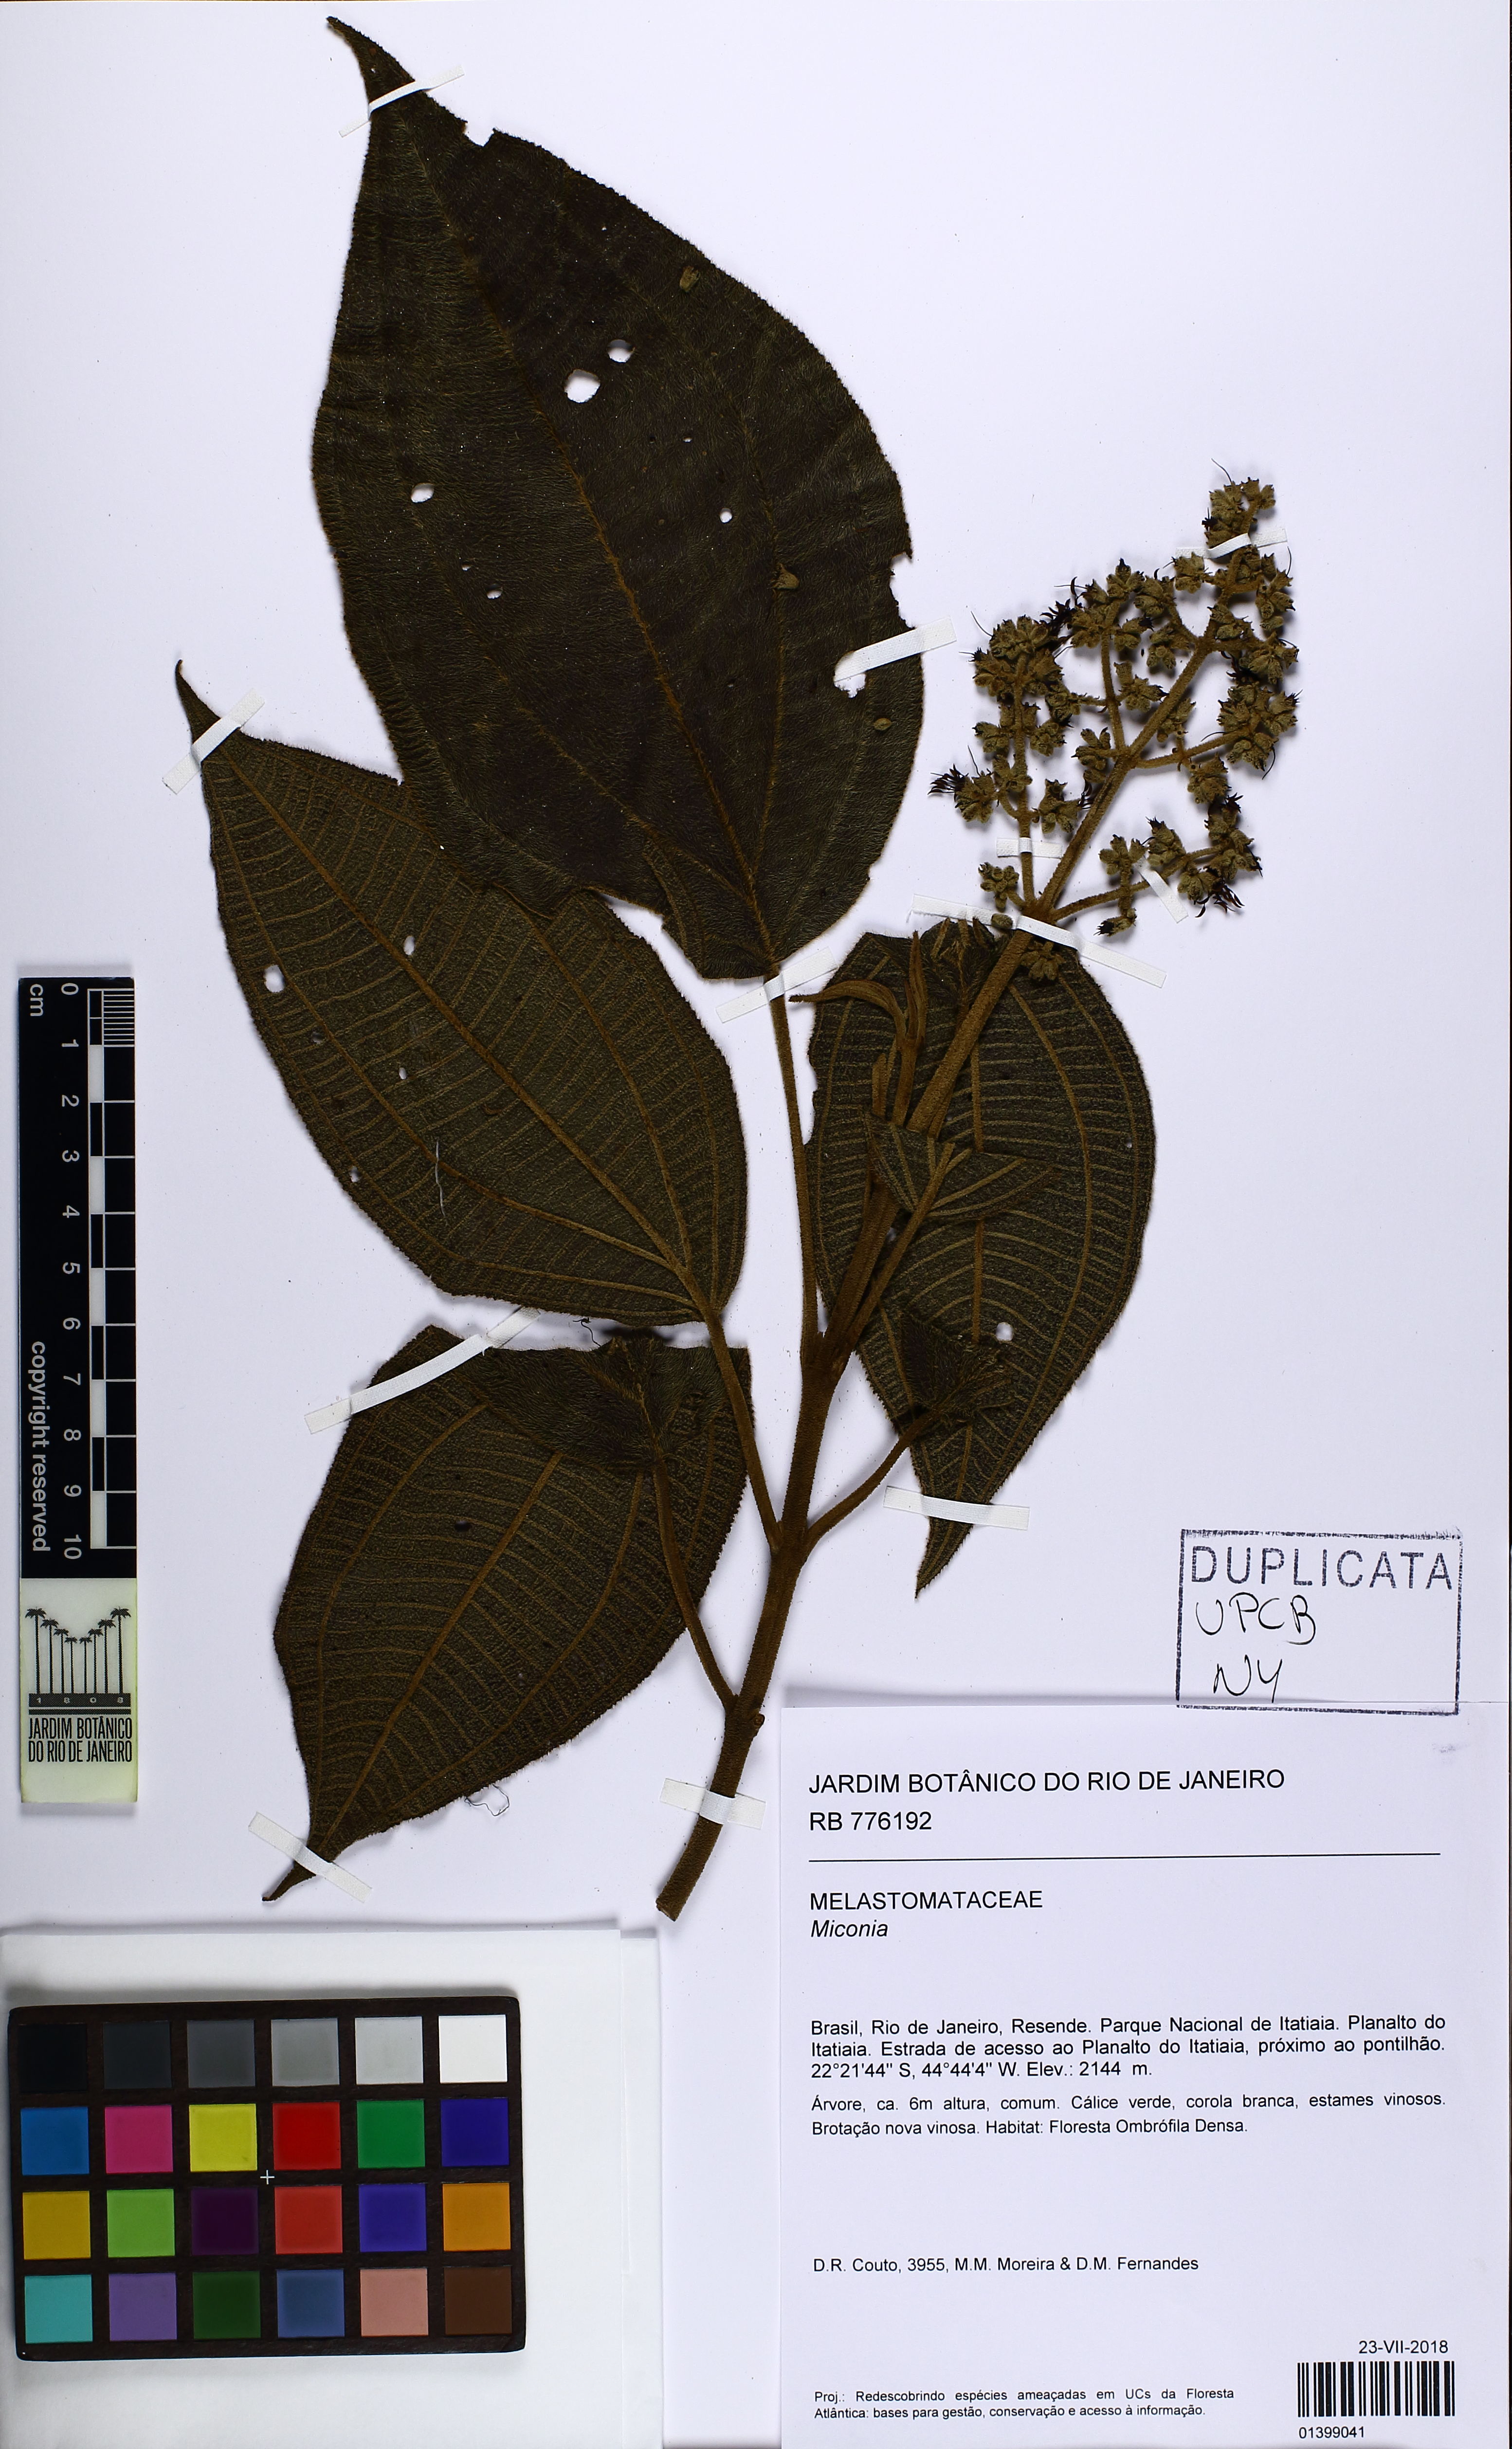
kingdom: Plantae
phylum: Tracheophyta
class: Magnoliopsida
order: Myrtales
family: Melastomataceae
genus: Miconia
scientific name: Miconia
